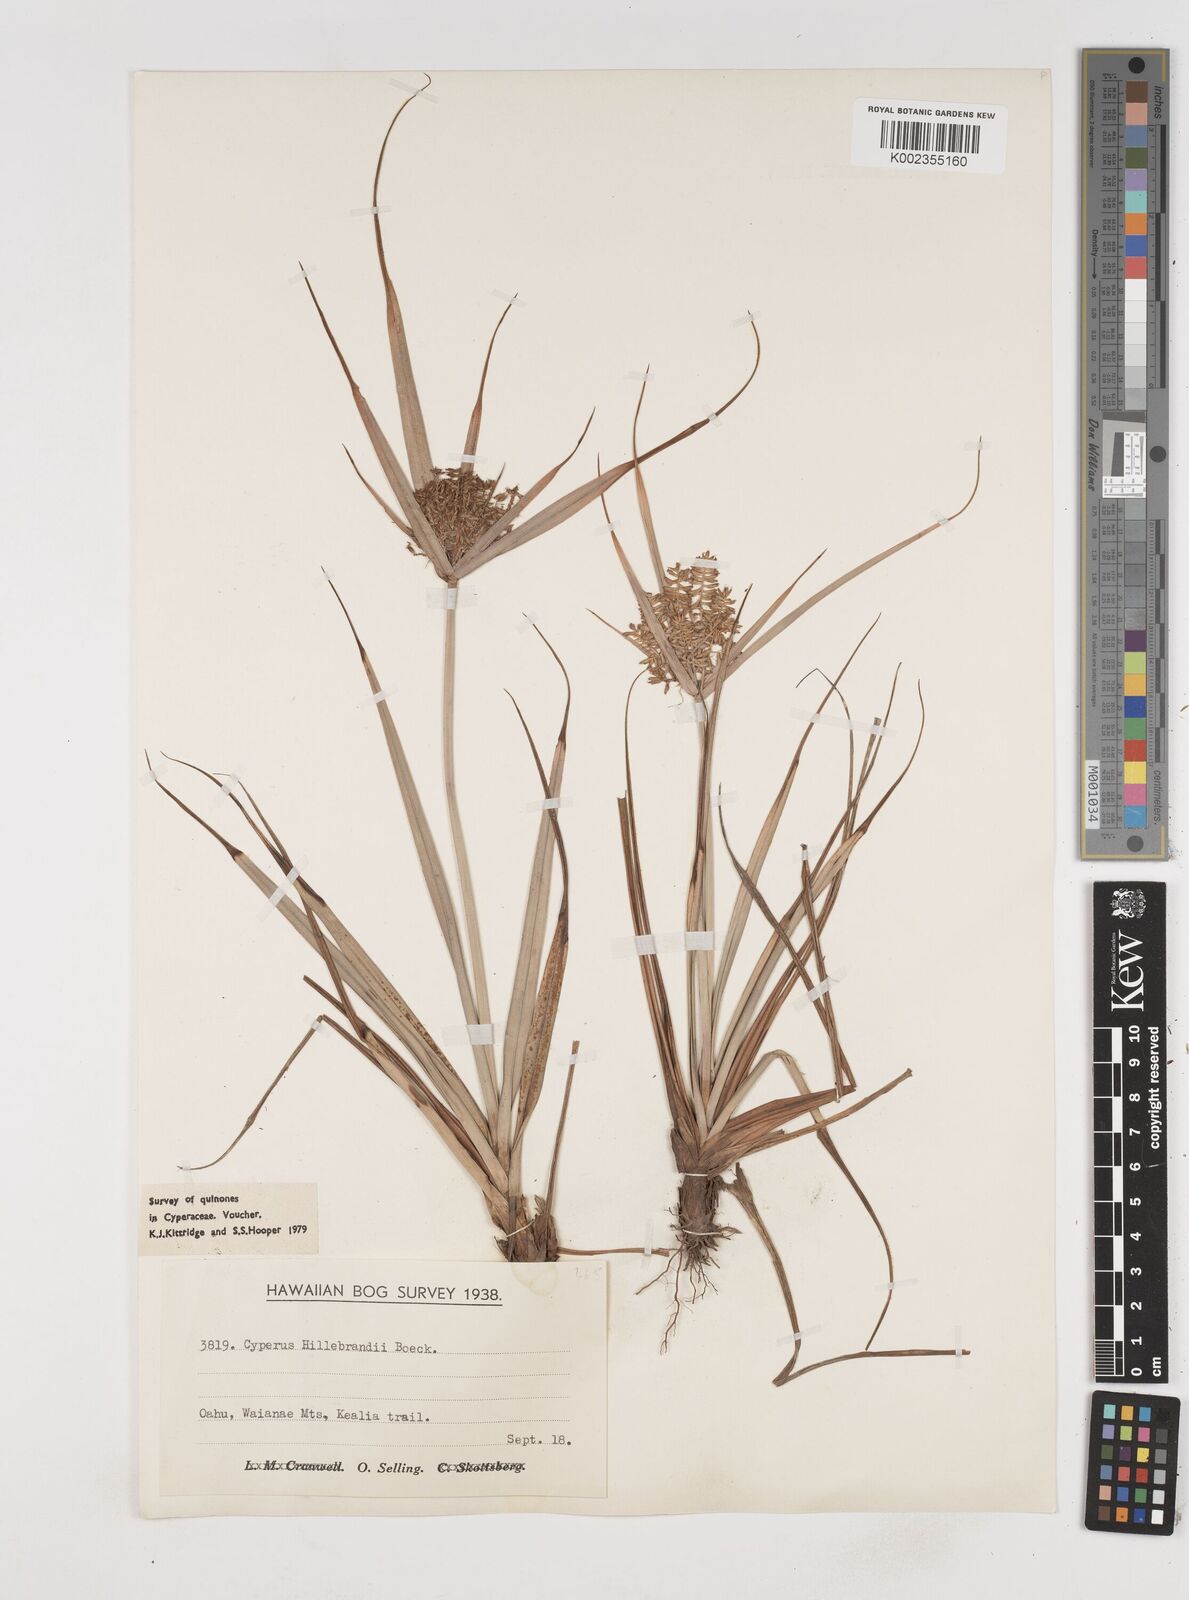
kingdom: Plantae
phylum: Tracheophyta
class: Liliopsida
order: Poales
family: Cyperaceae
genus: Cyperus
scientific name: Cyperus hillebrandii
